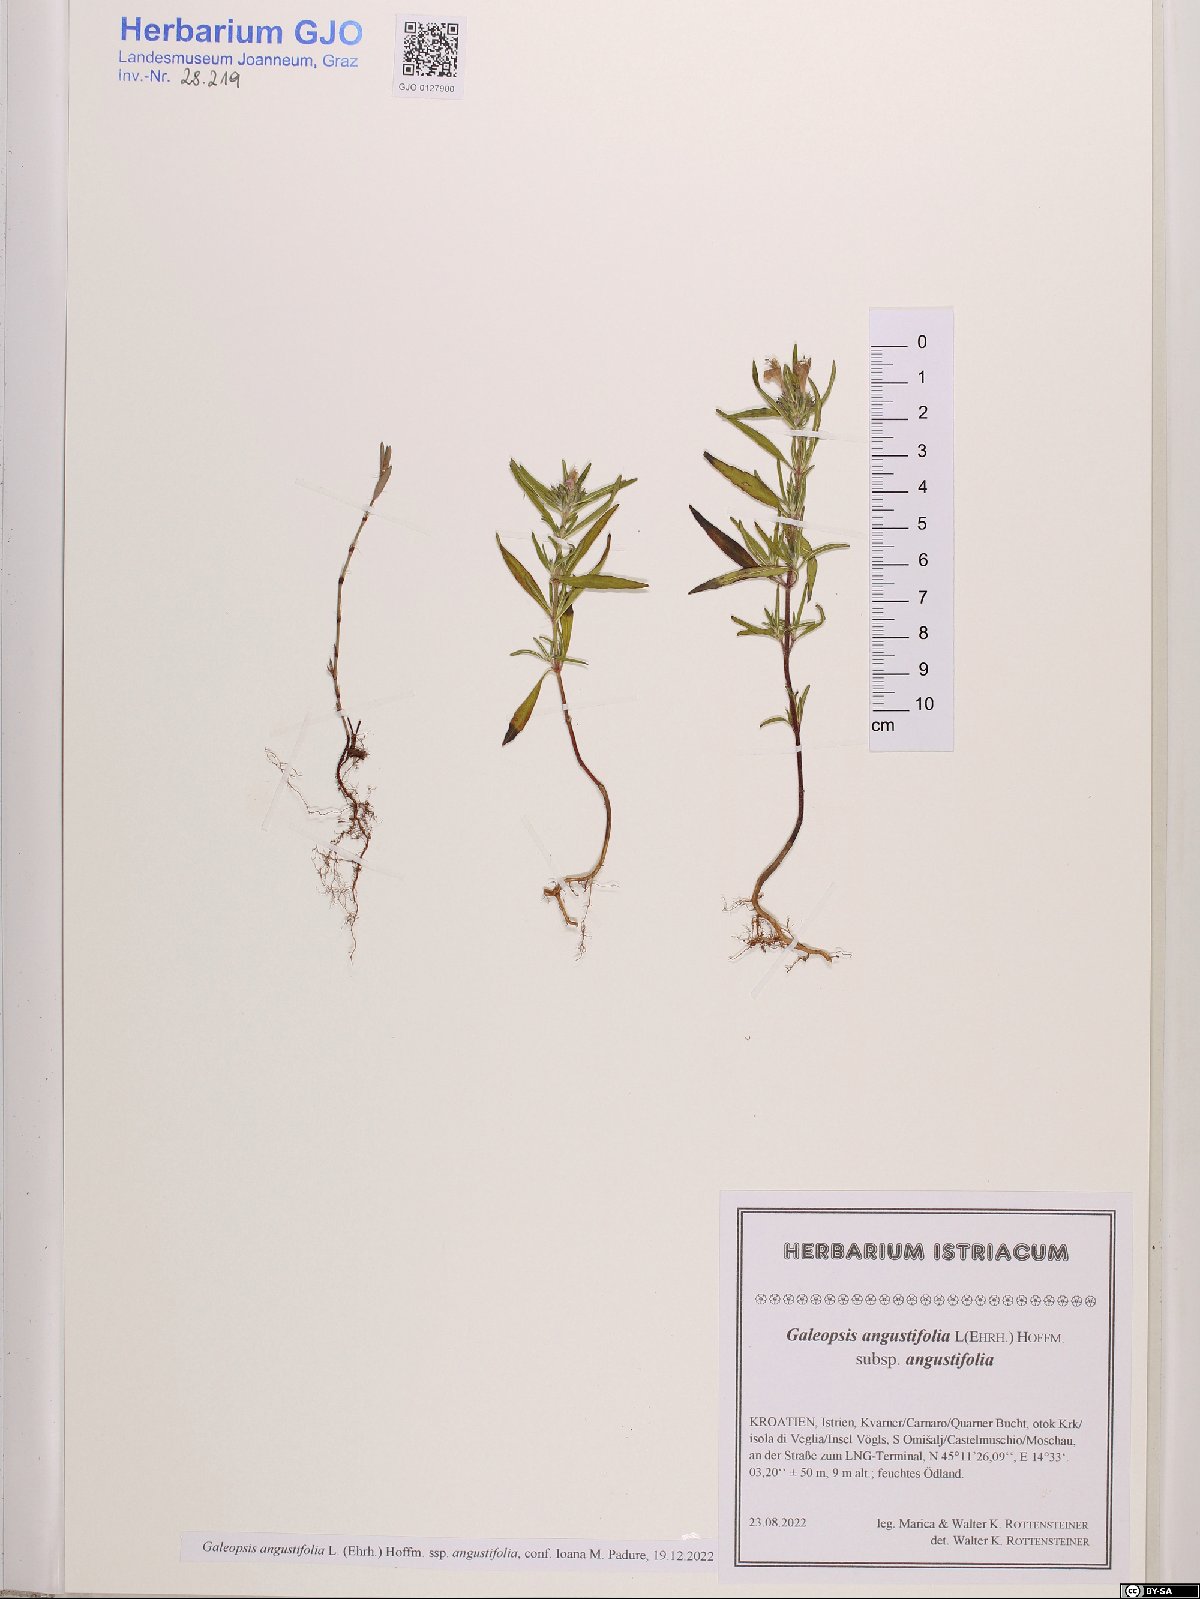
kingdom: Plantae
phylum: Tracheophyta
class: Magnoliopsida
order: Lamiales
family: Lamiaceae
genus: Galeopsis
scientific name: Galeopsis angustifolia
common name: Red hemp-nettle
